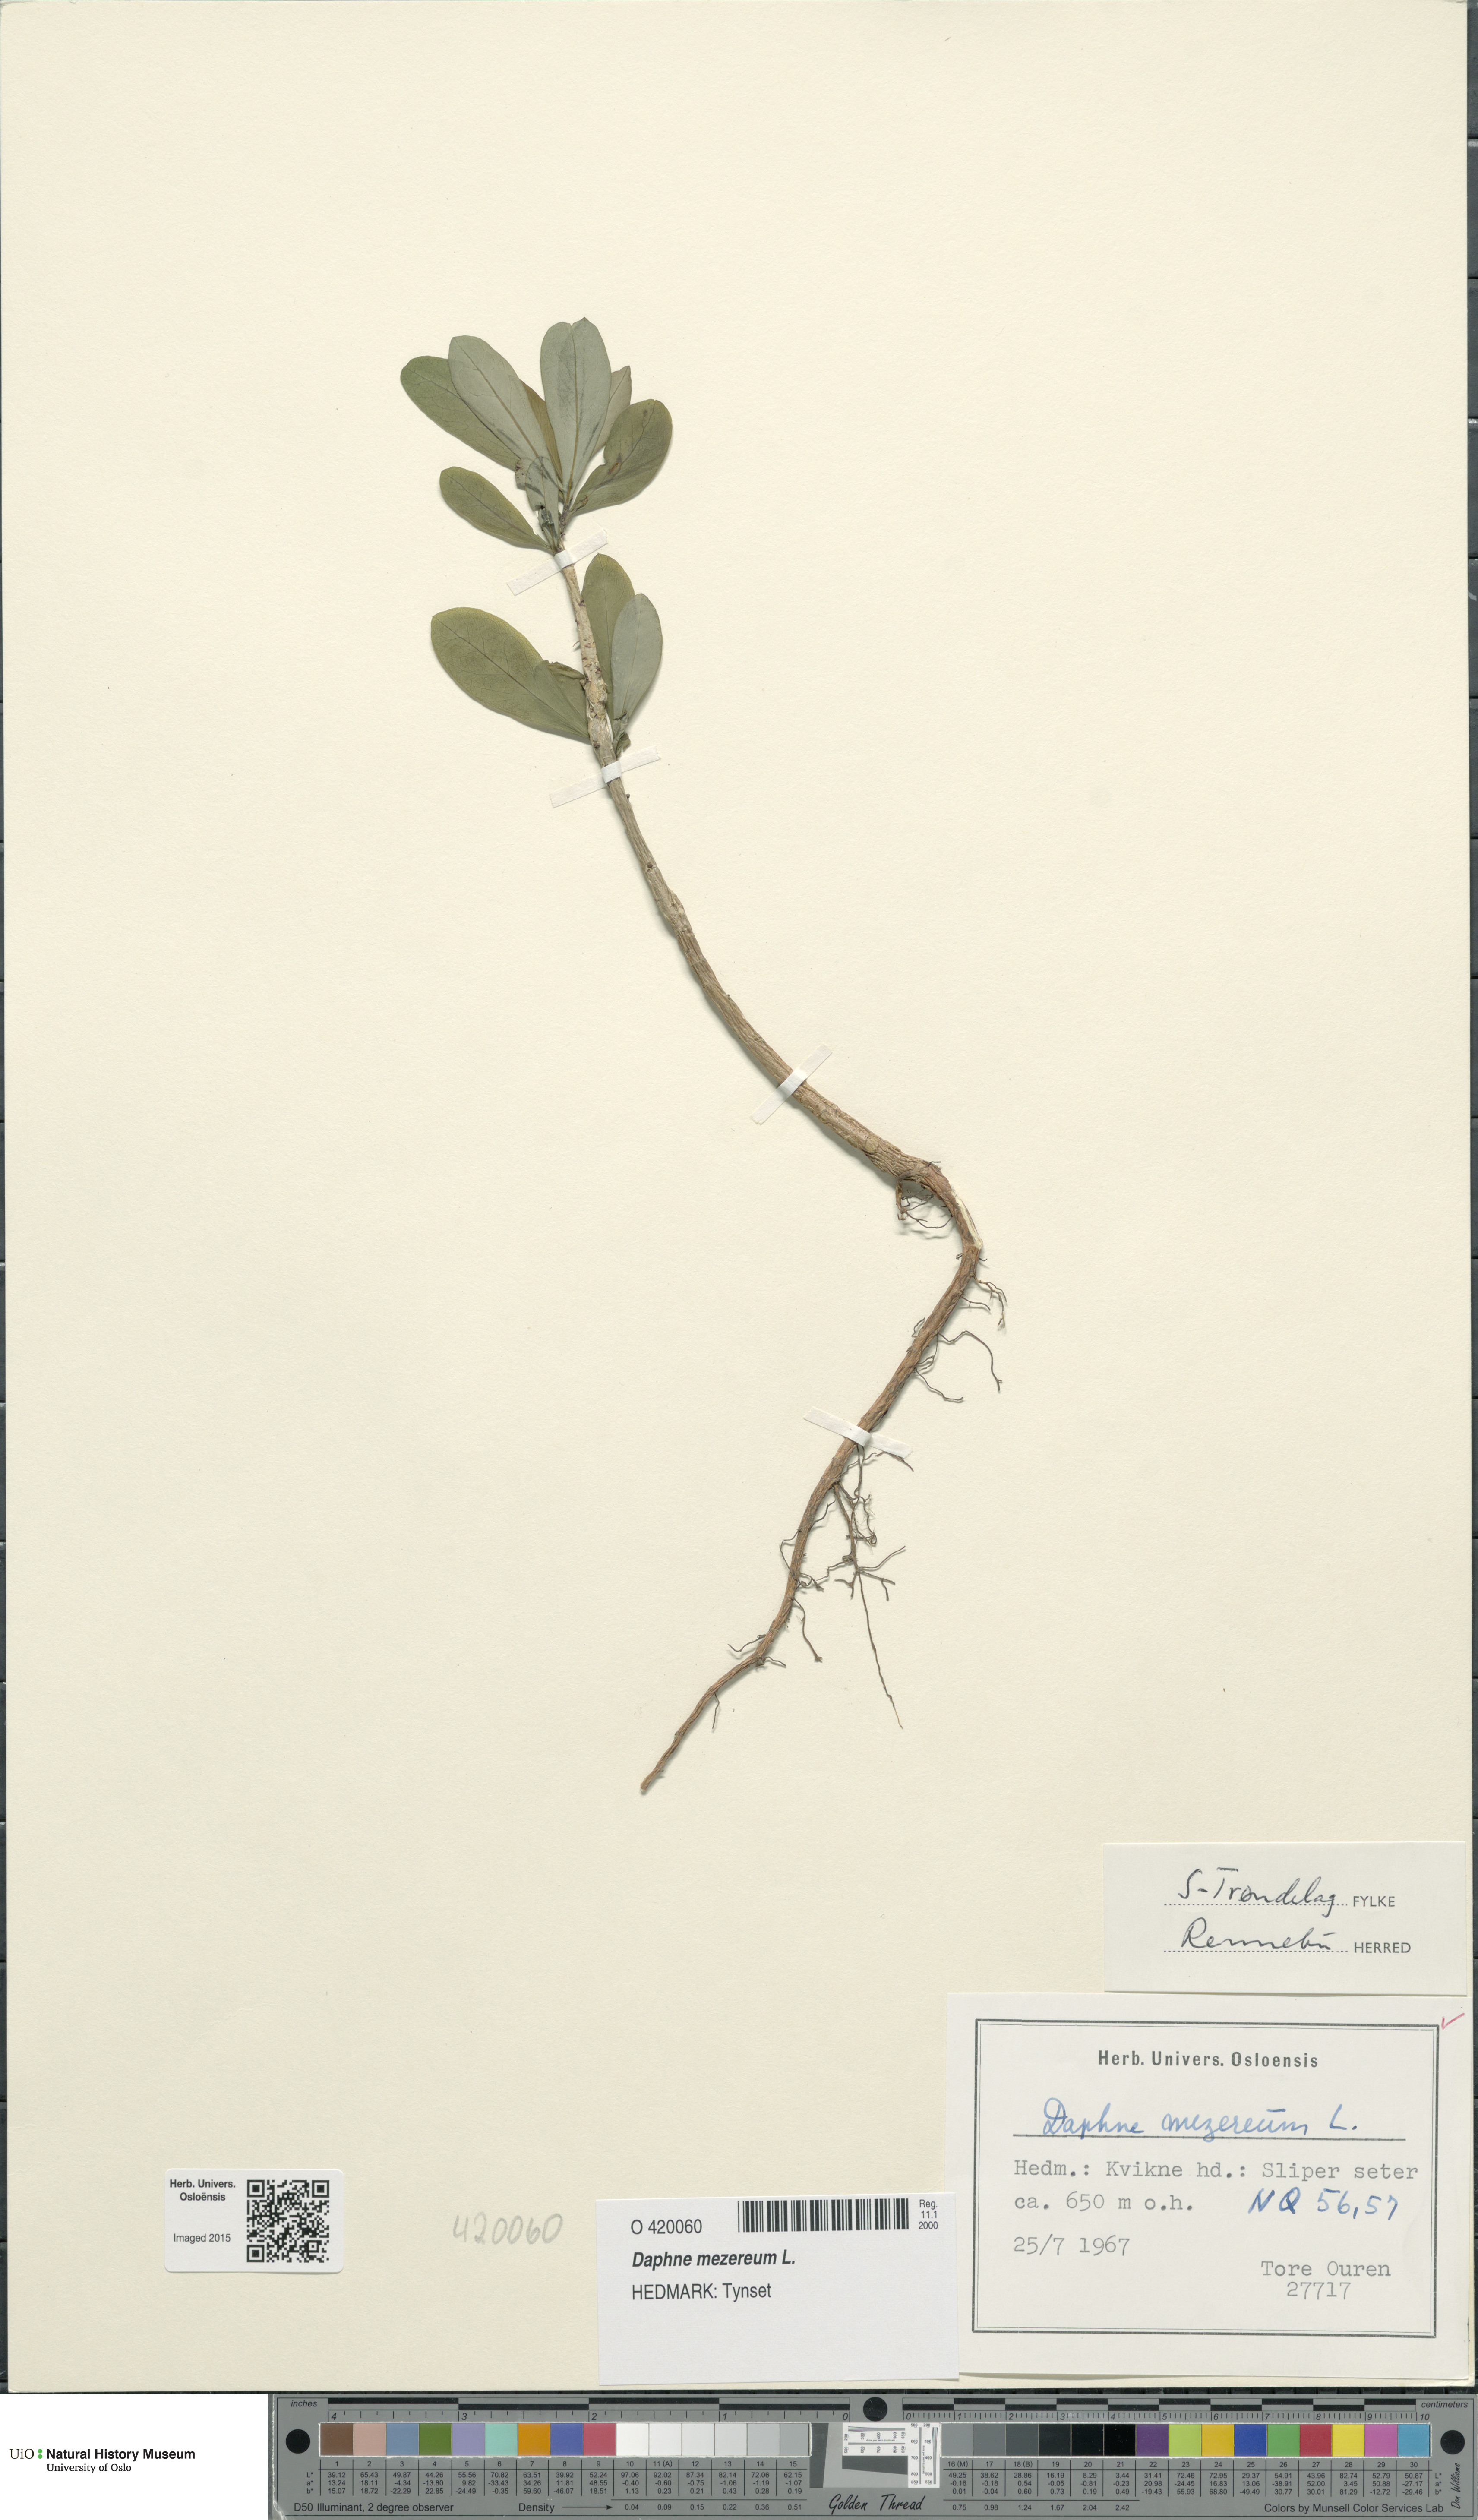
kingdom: Plantae
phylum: Tracheophyta
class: Magnoliopsida
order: Malvales
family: Thymelaeaceae
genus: Daphne
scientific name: Daphne mezereum
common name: Mezereon
